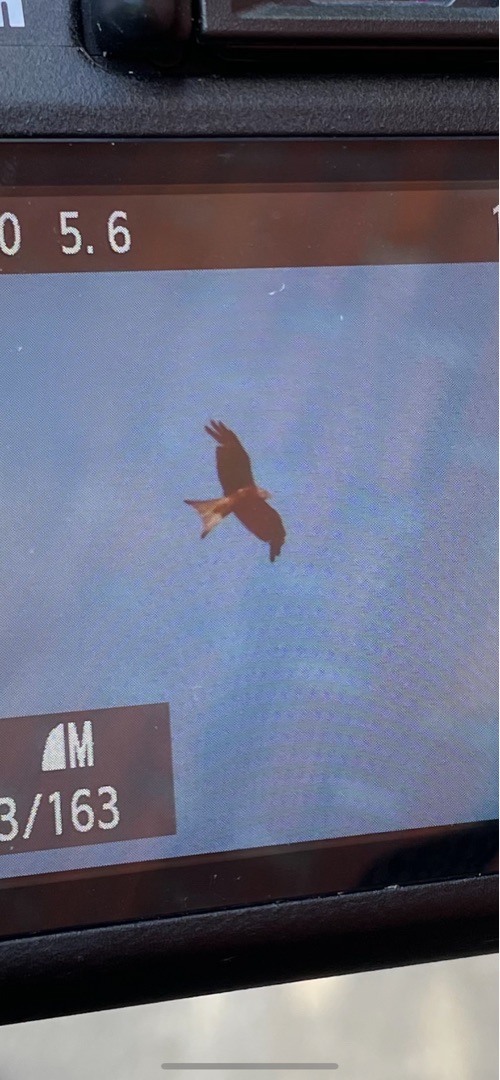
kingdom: Animalia
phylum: Chordata
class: Aves
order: Accipitriformes
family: Accipitridae
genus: Milvus
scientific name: Milvus milvus
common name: Rød glente
